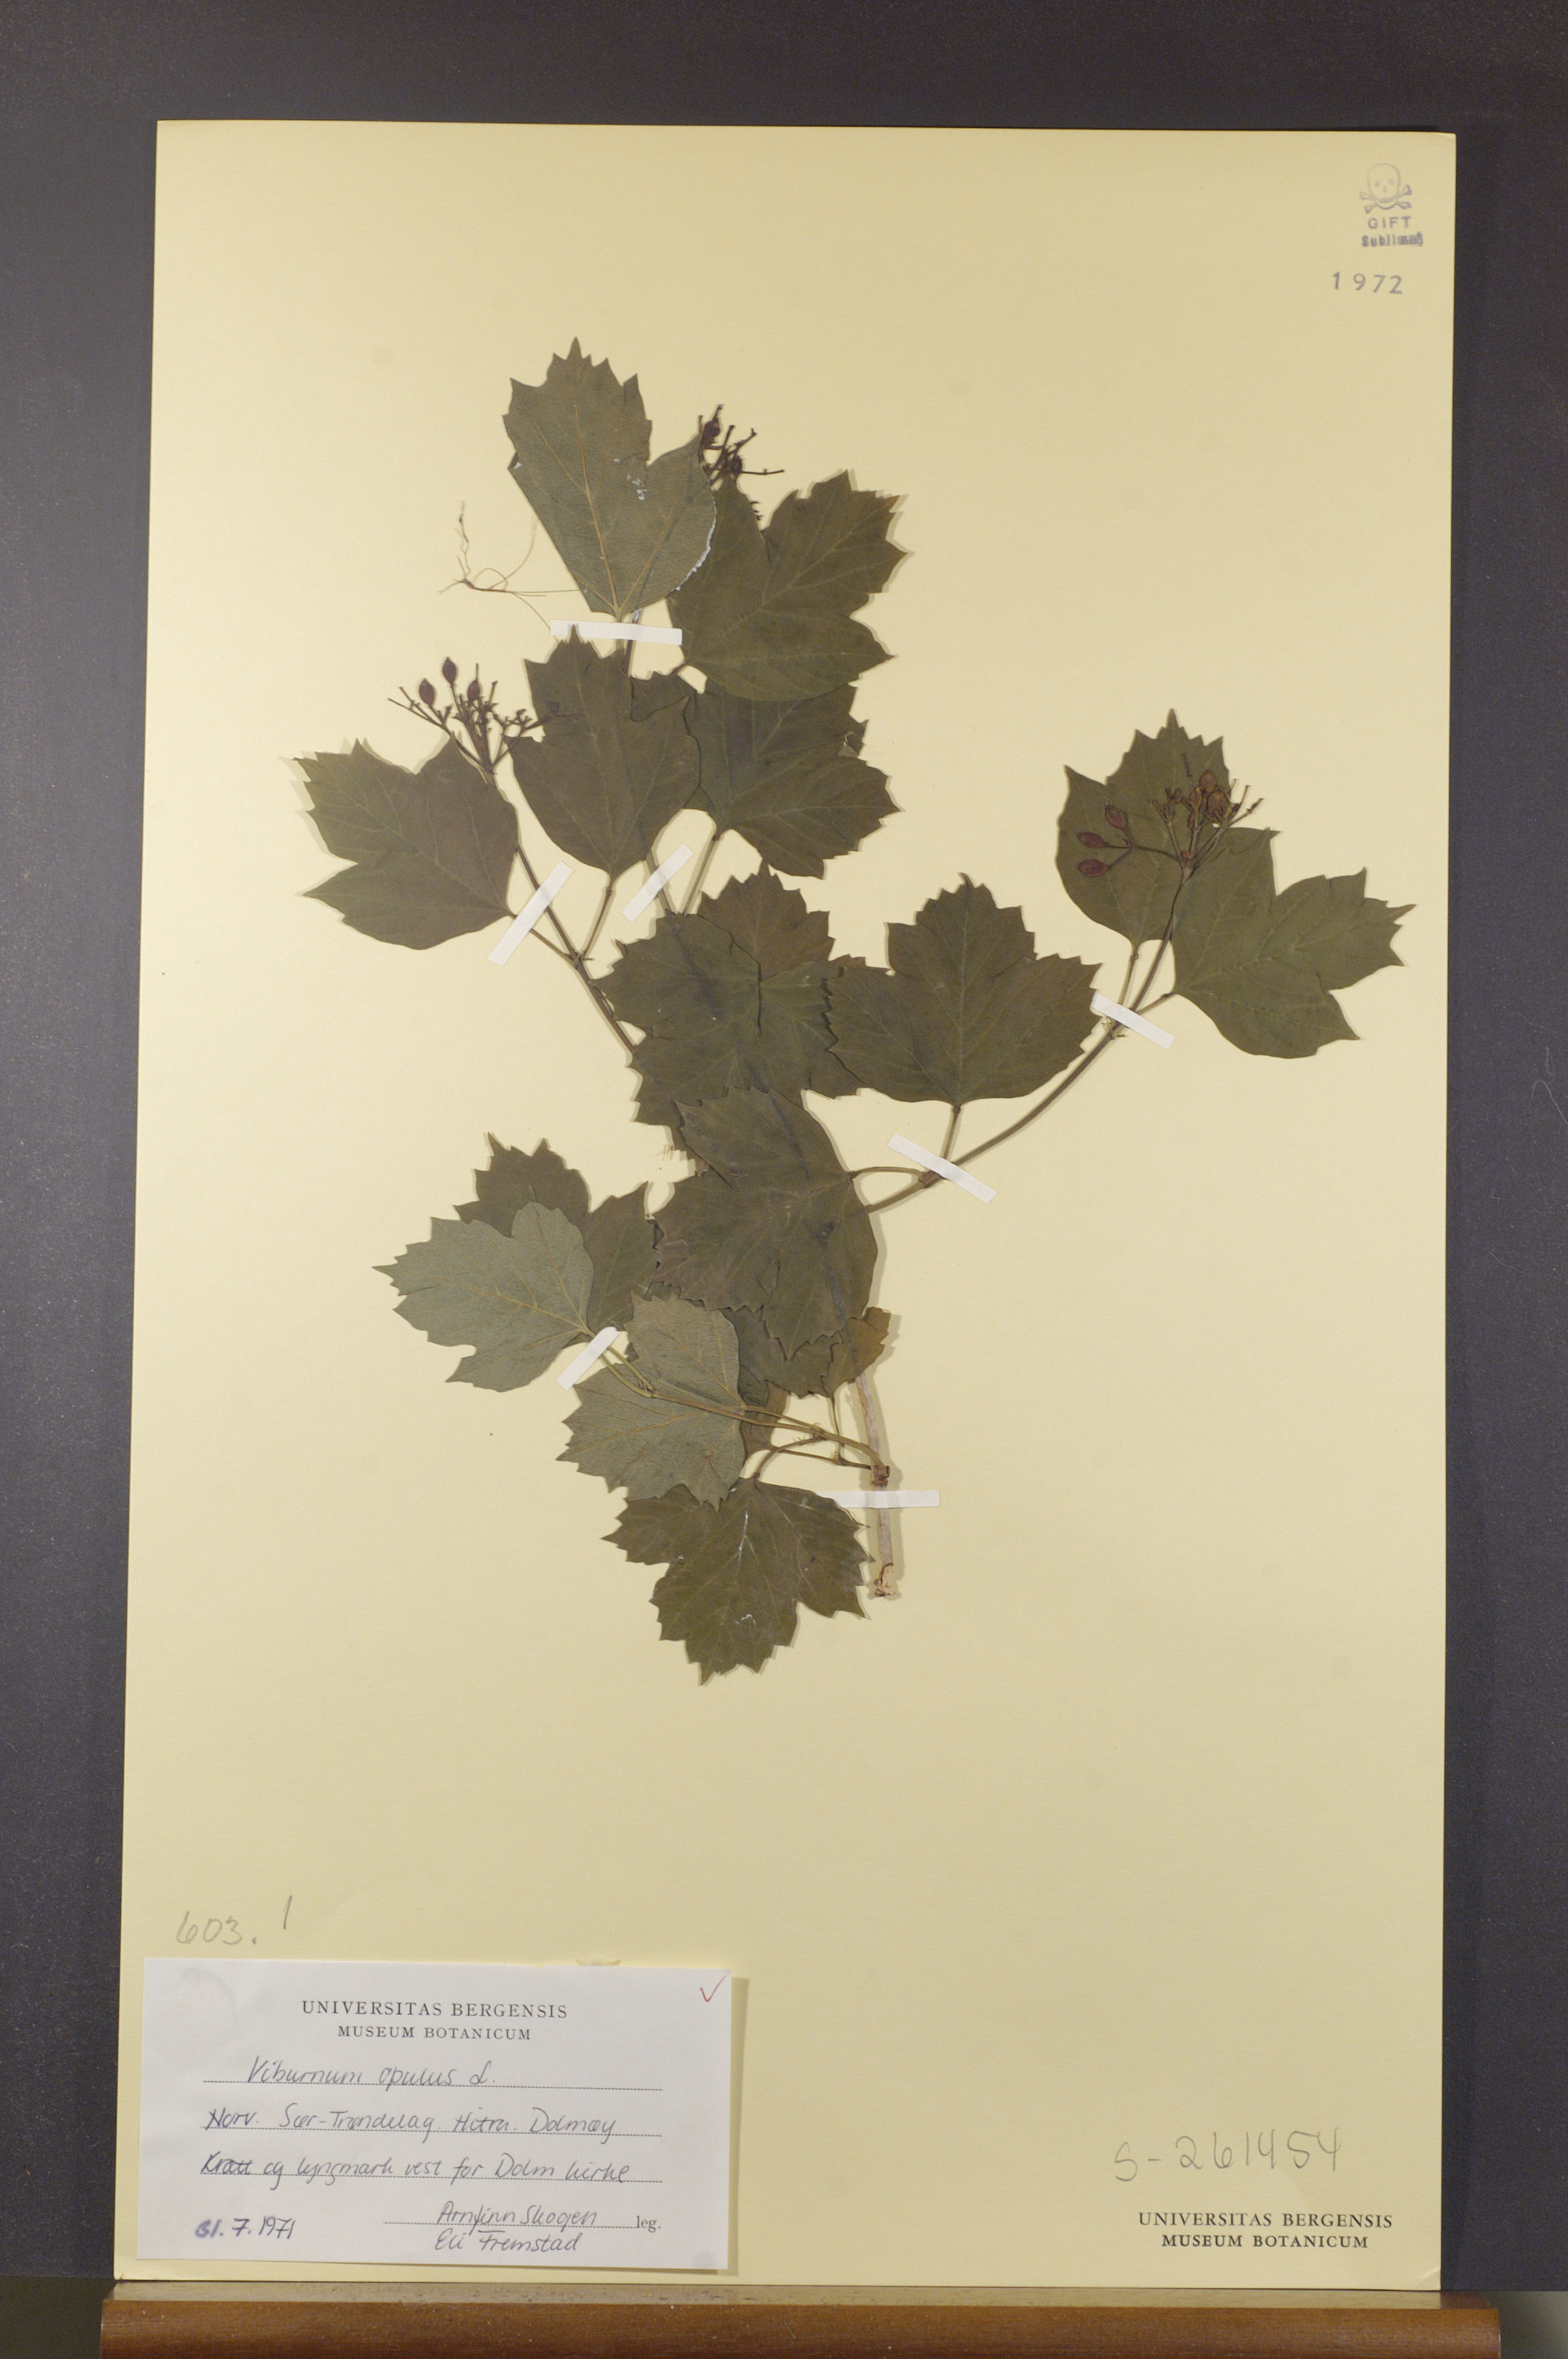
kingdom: Plantae
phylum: Tracheophyta
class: Magnoliopsida
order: Dipsacales
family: Viburnaceae
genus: Viburnum
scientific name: Viburnum opulus
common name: Guelder-rose
